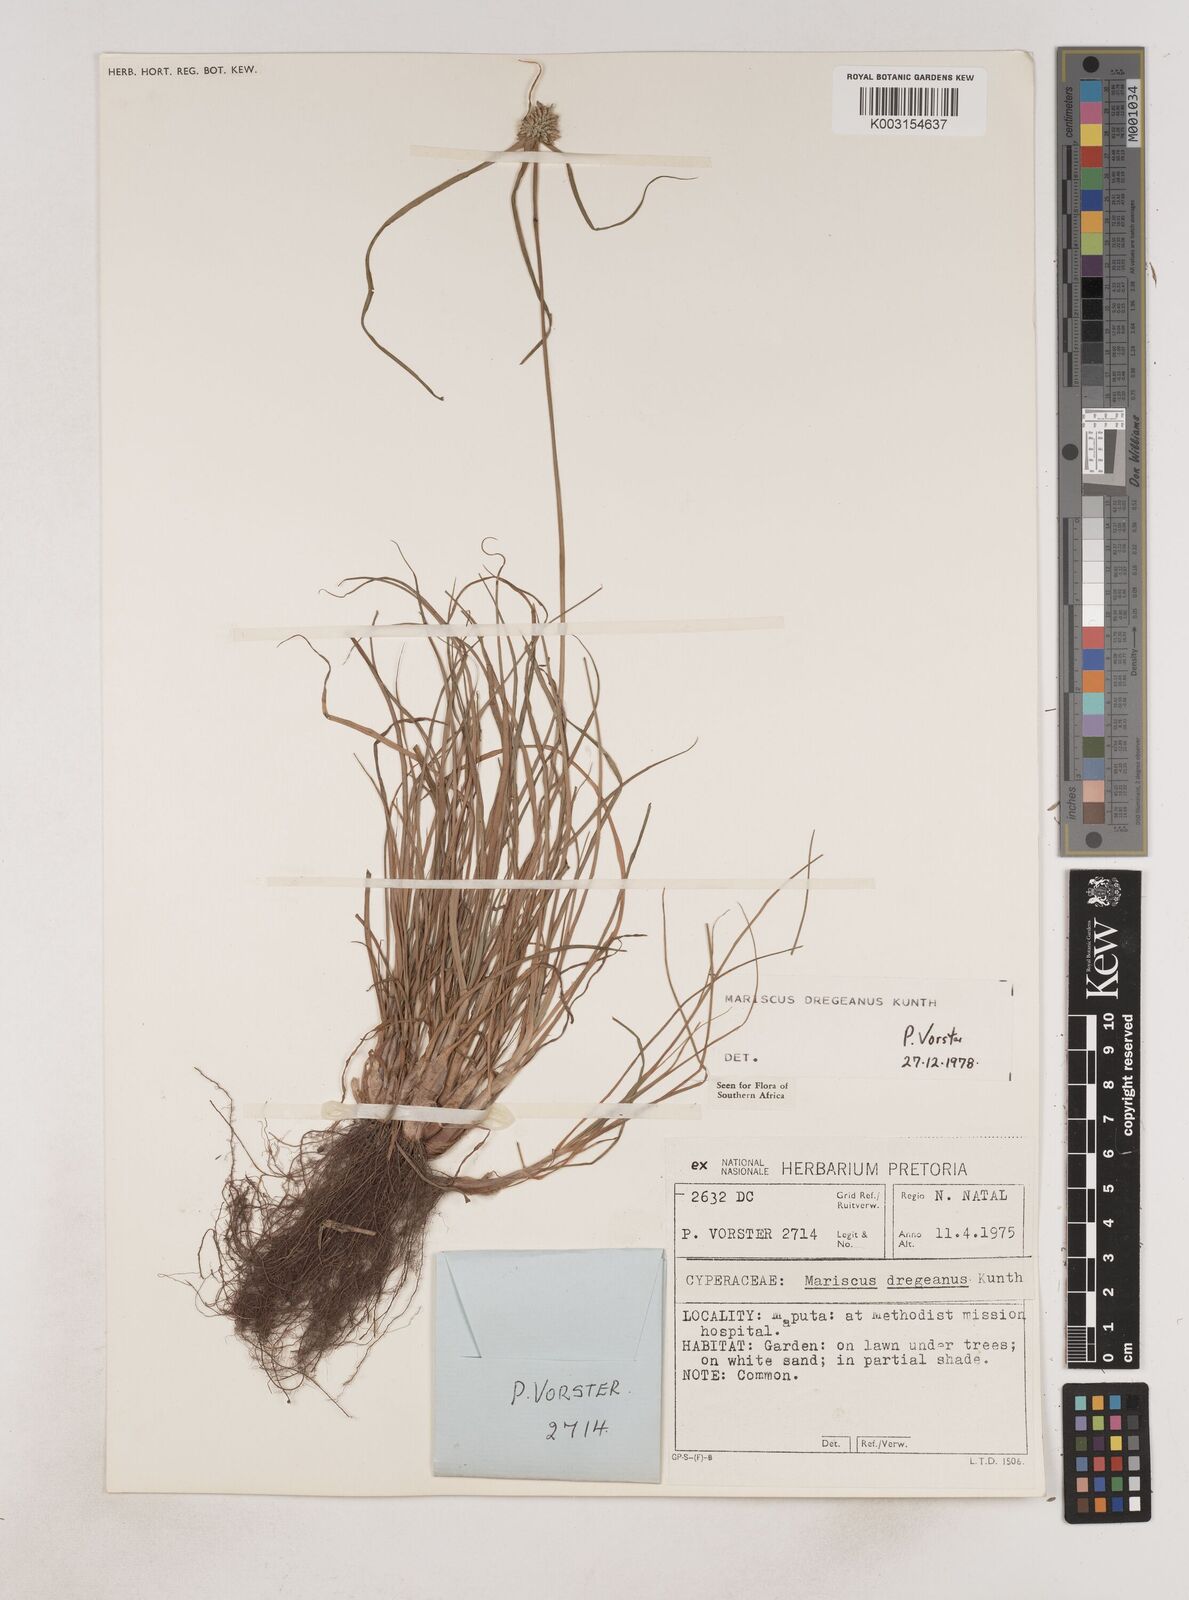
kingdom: Plantae
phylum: Tracheophyta
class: Liliopsida
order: Poales
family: Cyperaceae
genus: Cyperus
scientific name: Cyperus dubius
